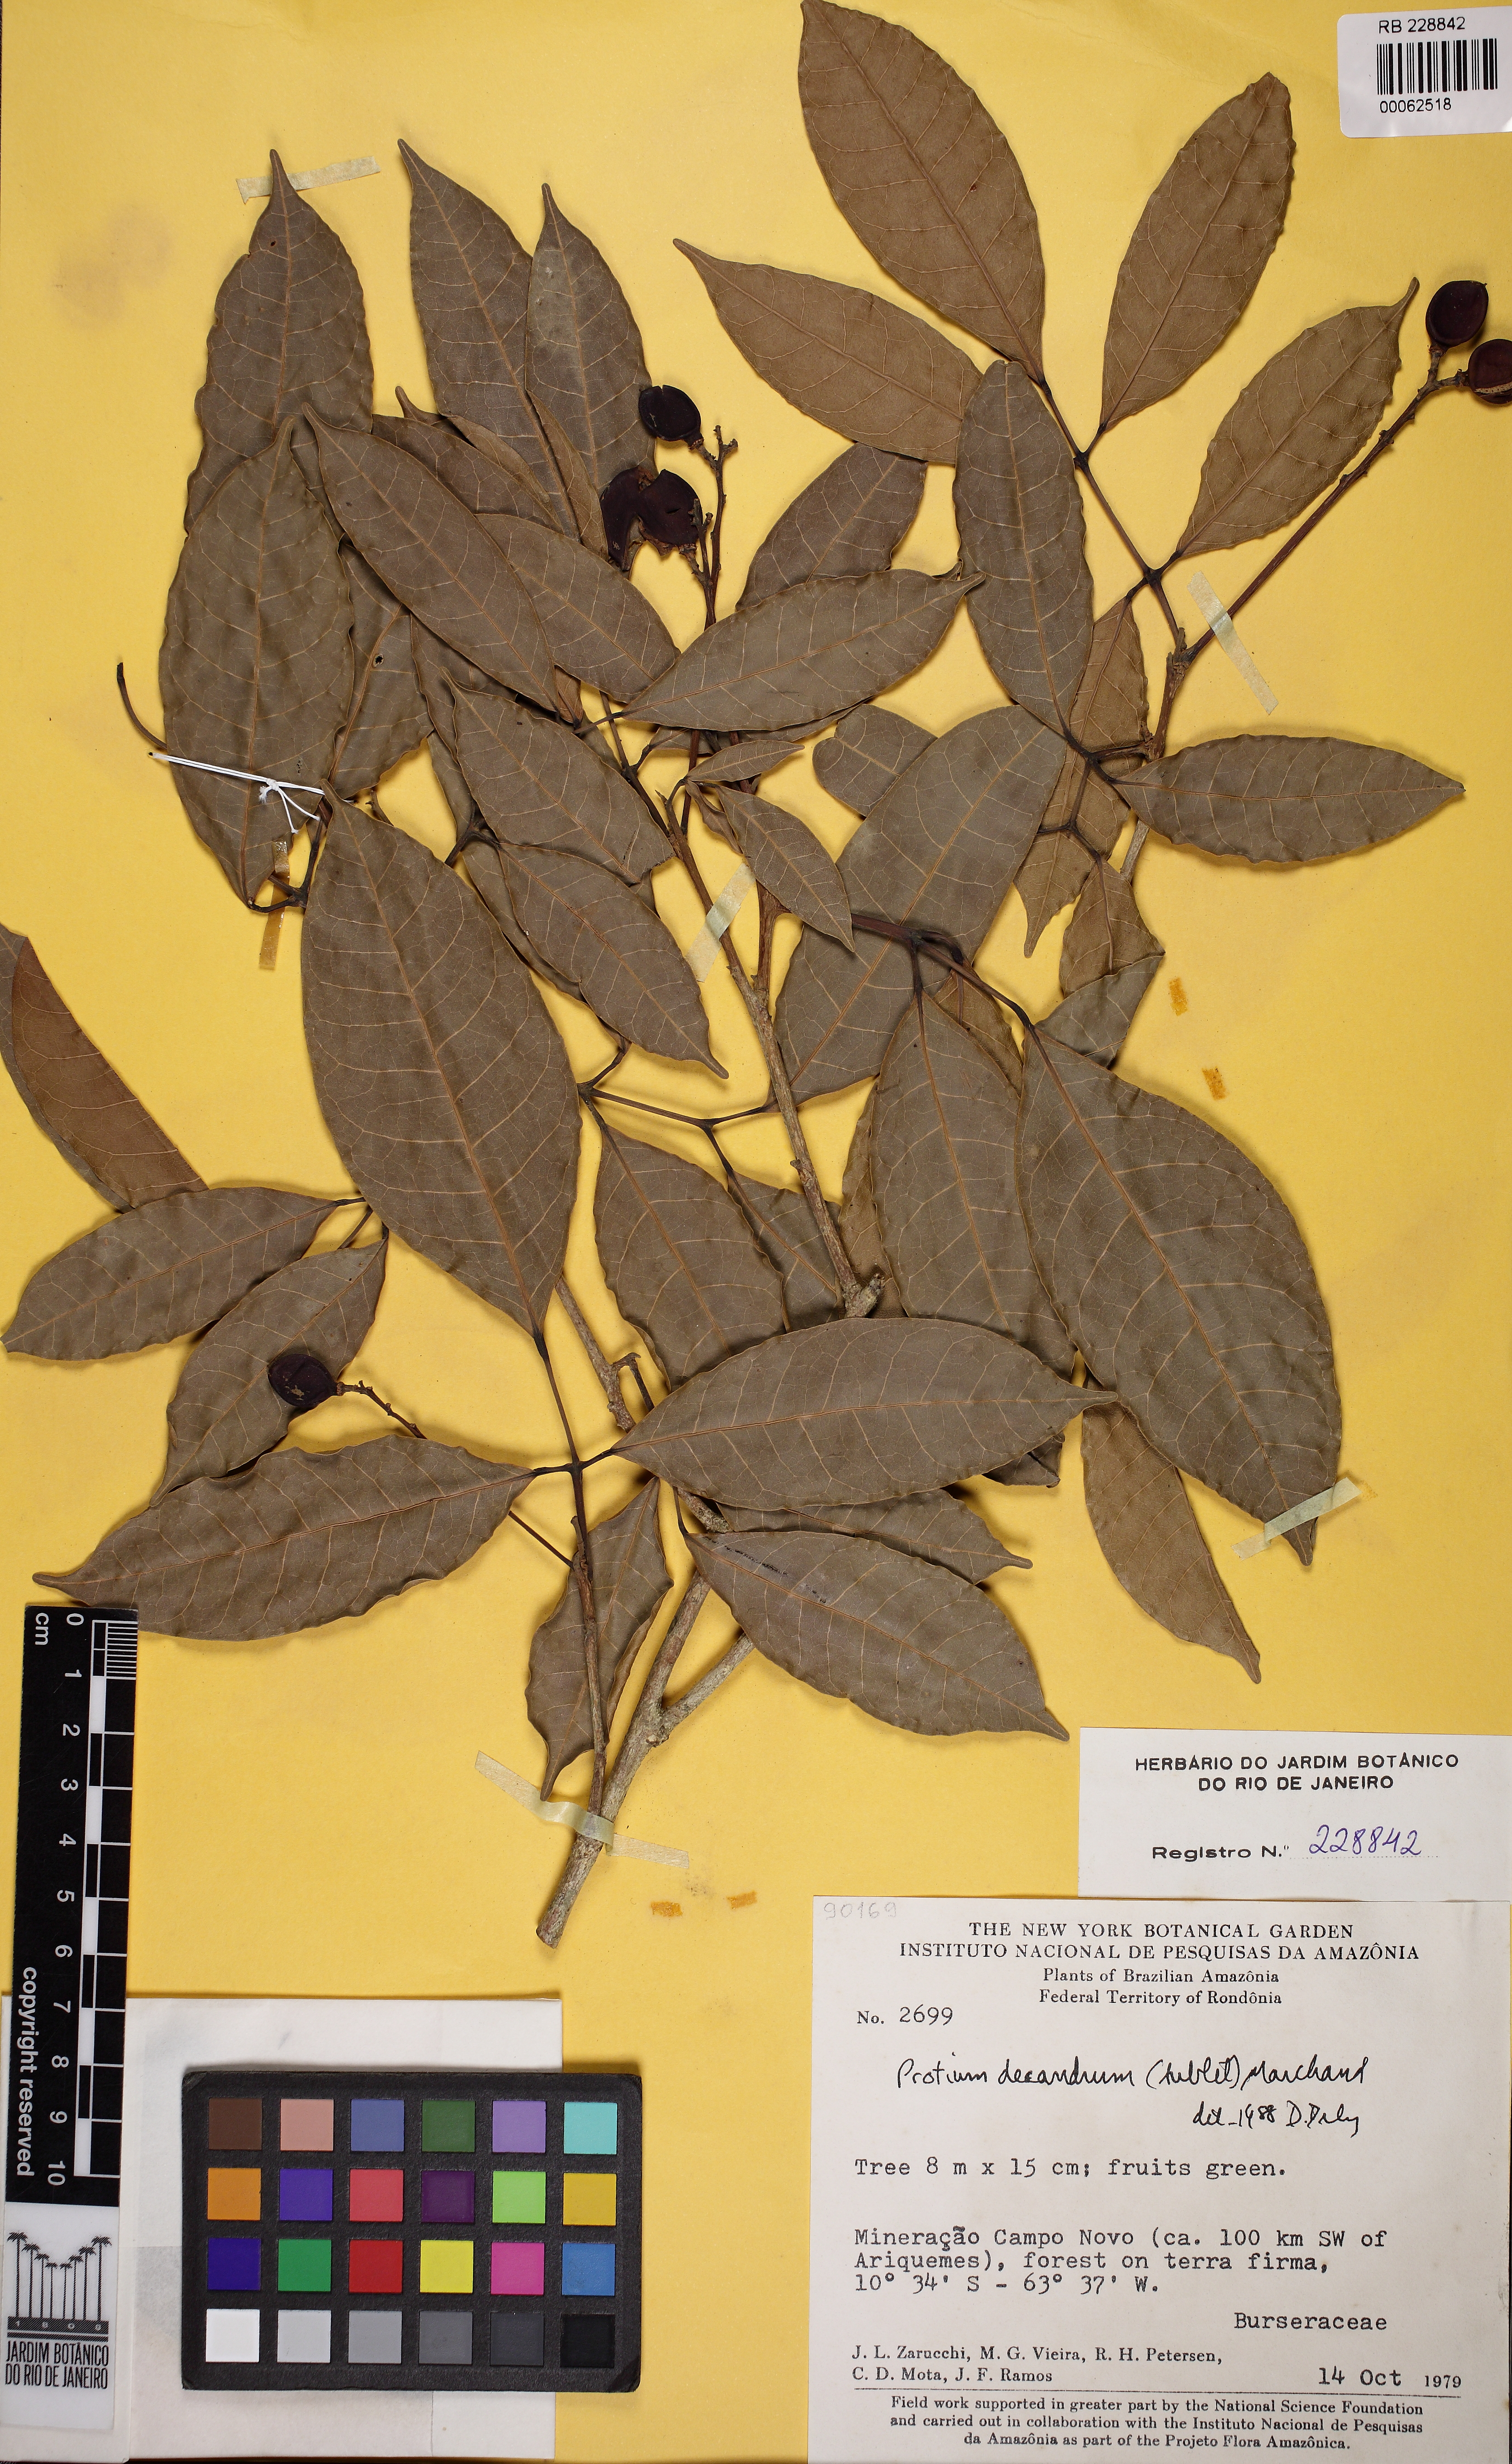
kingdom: Plantae
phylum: Tracheophyta
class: Magnoliopsida
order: Sapindales
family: Burseraceae
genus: Protium
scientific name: Protium decandrum
